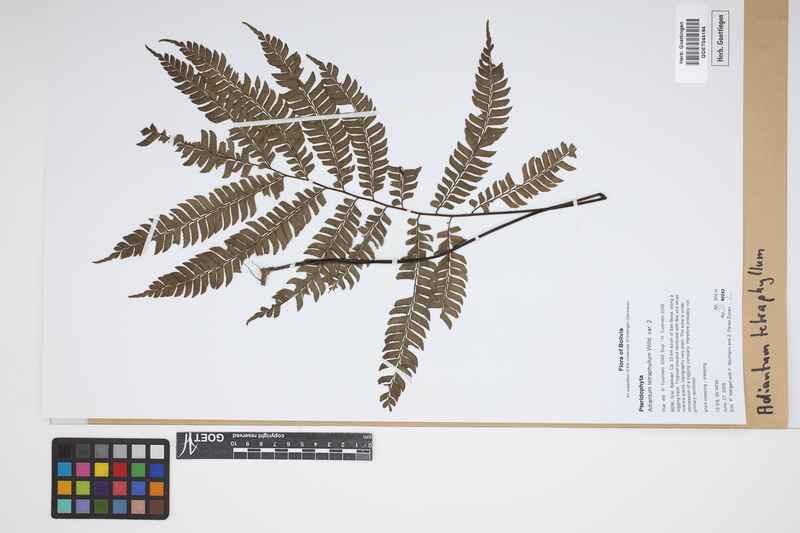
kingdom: Plantae
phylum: Tracheophyta
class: Polypodiopsida
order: Polypodiales
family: Pteridaceae
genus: Adiantum
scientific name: Adiantum tetraphyllum
